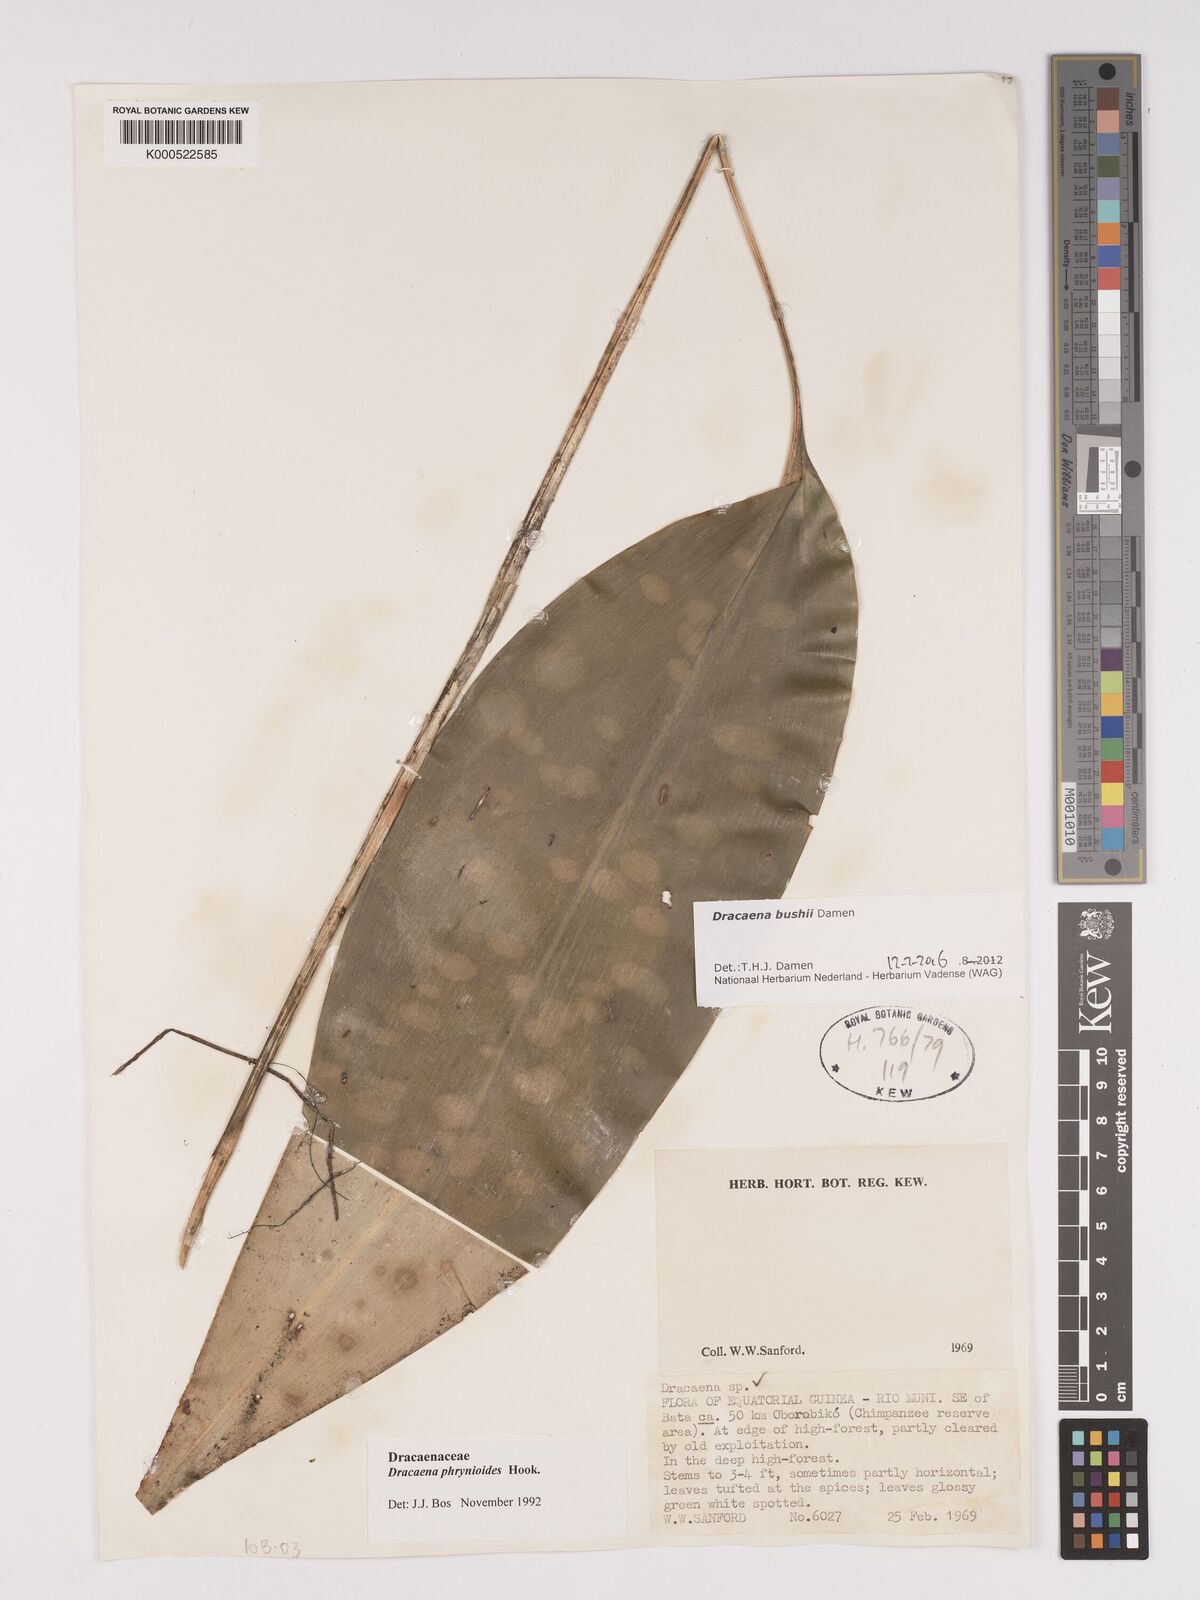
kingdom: Plantae
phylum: Tracheophyta
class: Liliopsida
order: Asparagales
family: Asparagaceae
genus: Dracaena
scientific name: Dracaena bushii
